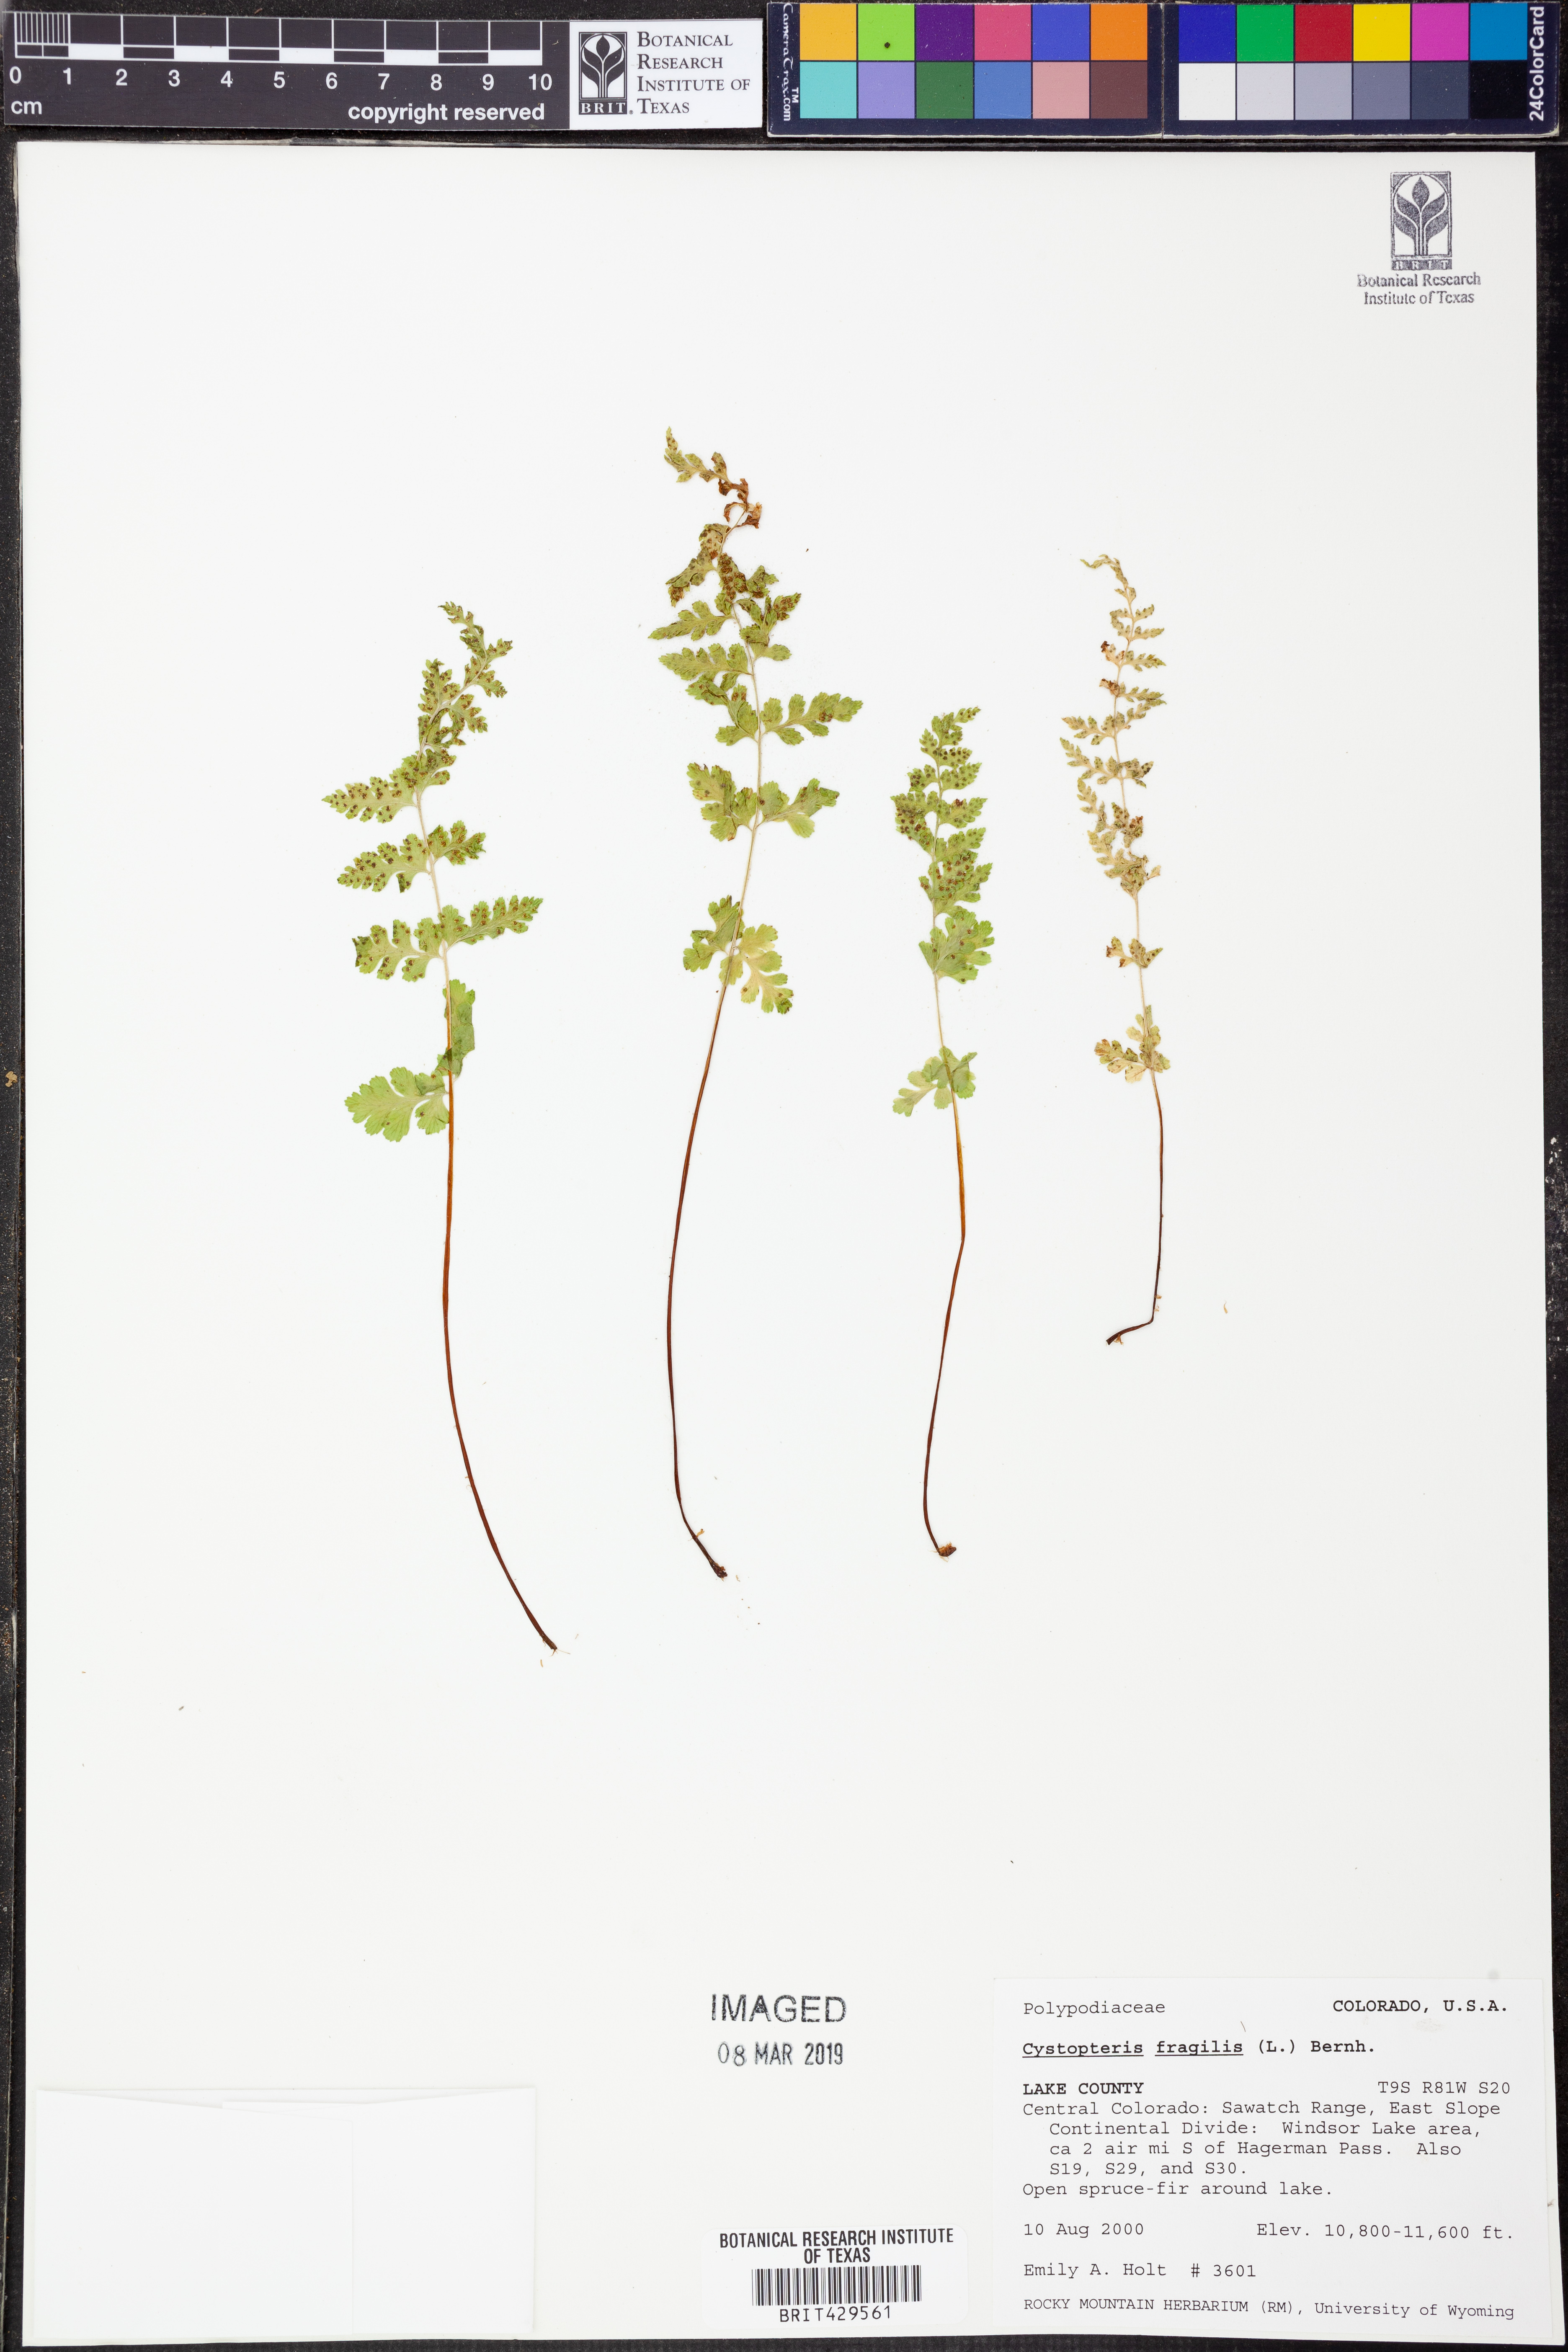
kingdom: Plantae
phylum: Tracheophyta
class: Polypodiopsida
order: Polypodiales
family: Cystopteridaceae
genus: Cystopteris
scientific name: Cystopteris fragilis
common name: Brittle bladder fern
